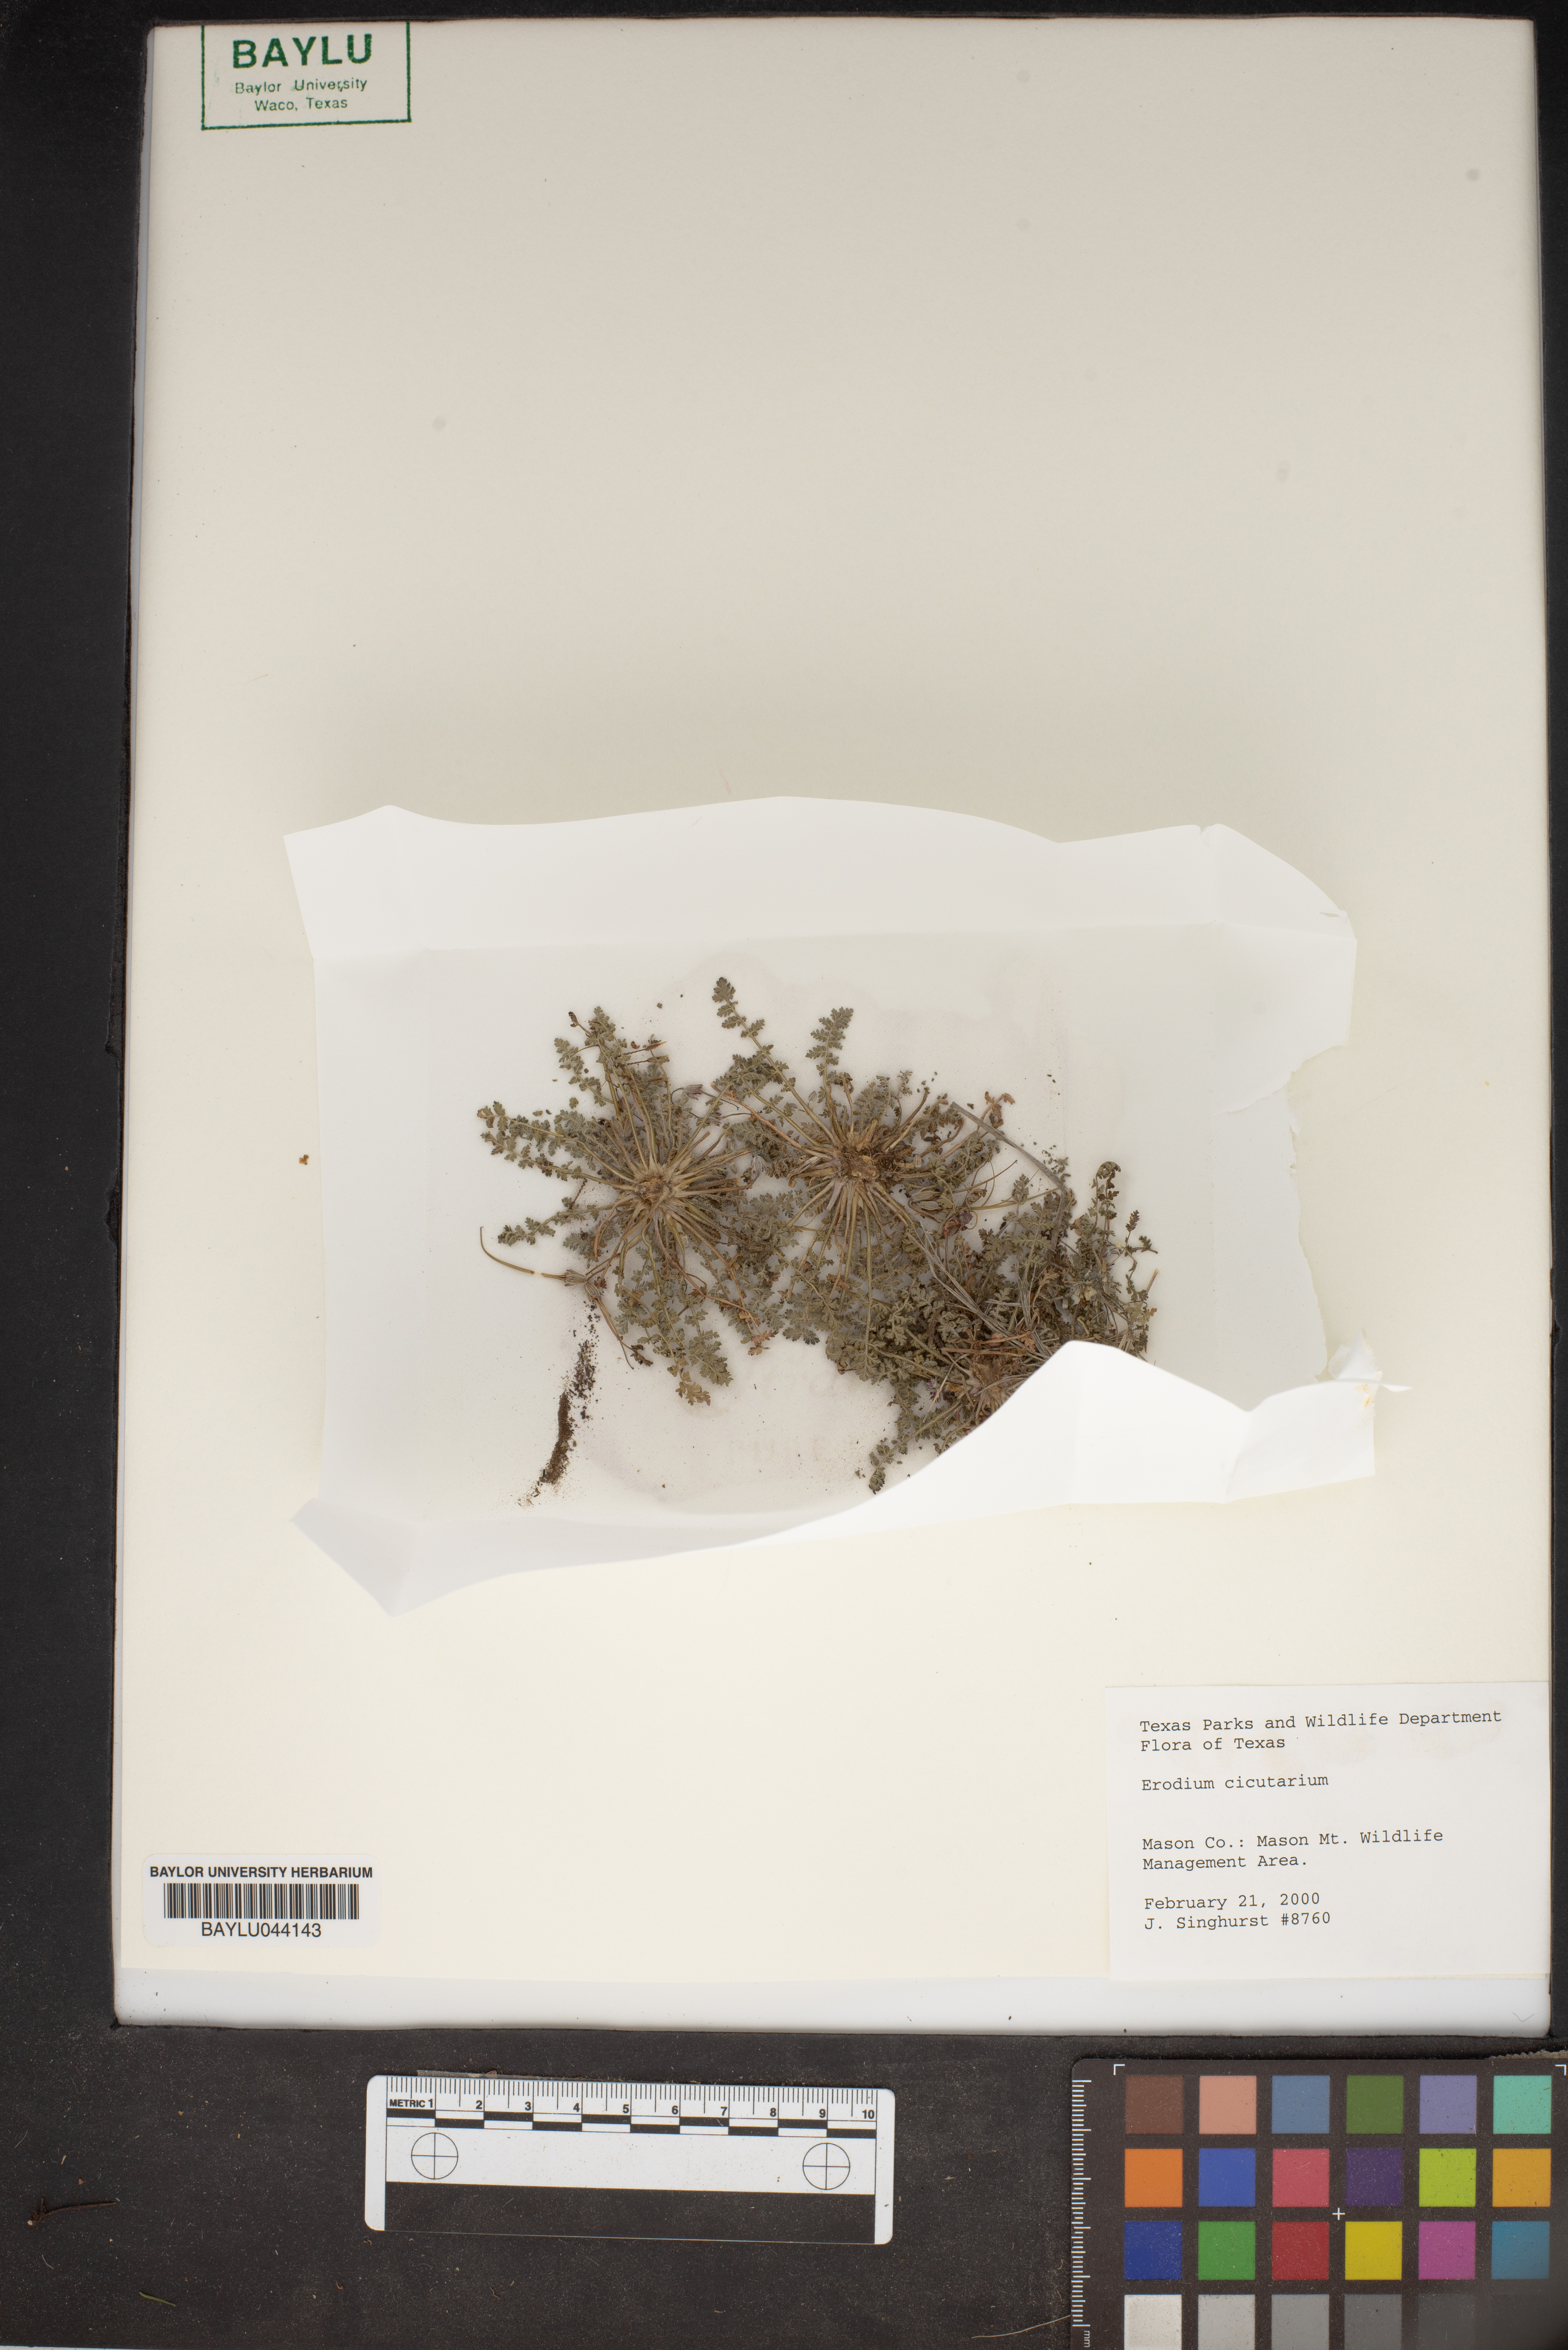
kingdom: Plantae
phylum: Tracheophyta
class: Magnoliopsida
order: Geraniales
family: Geraniaceae
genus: Erodium
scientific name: Erodium cicutarium
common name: Common stork's-bill
